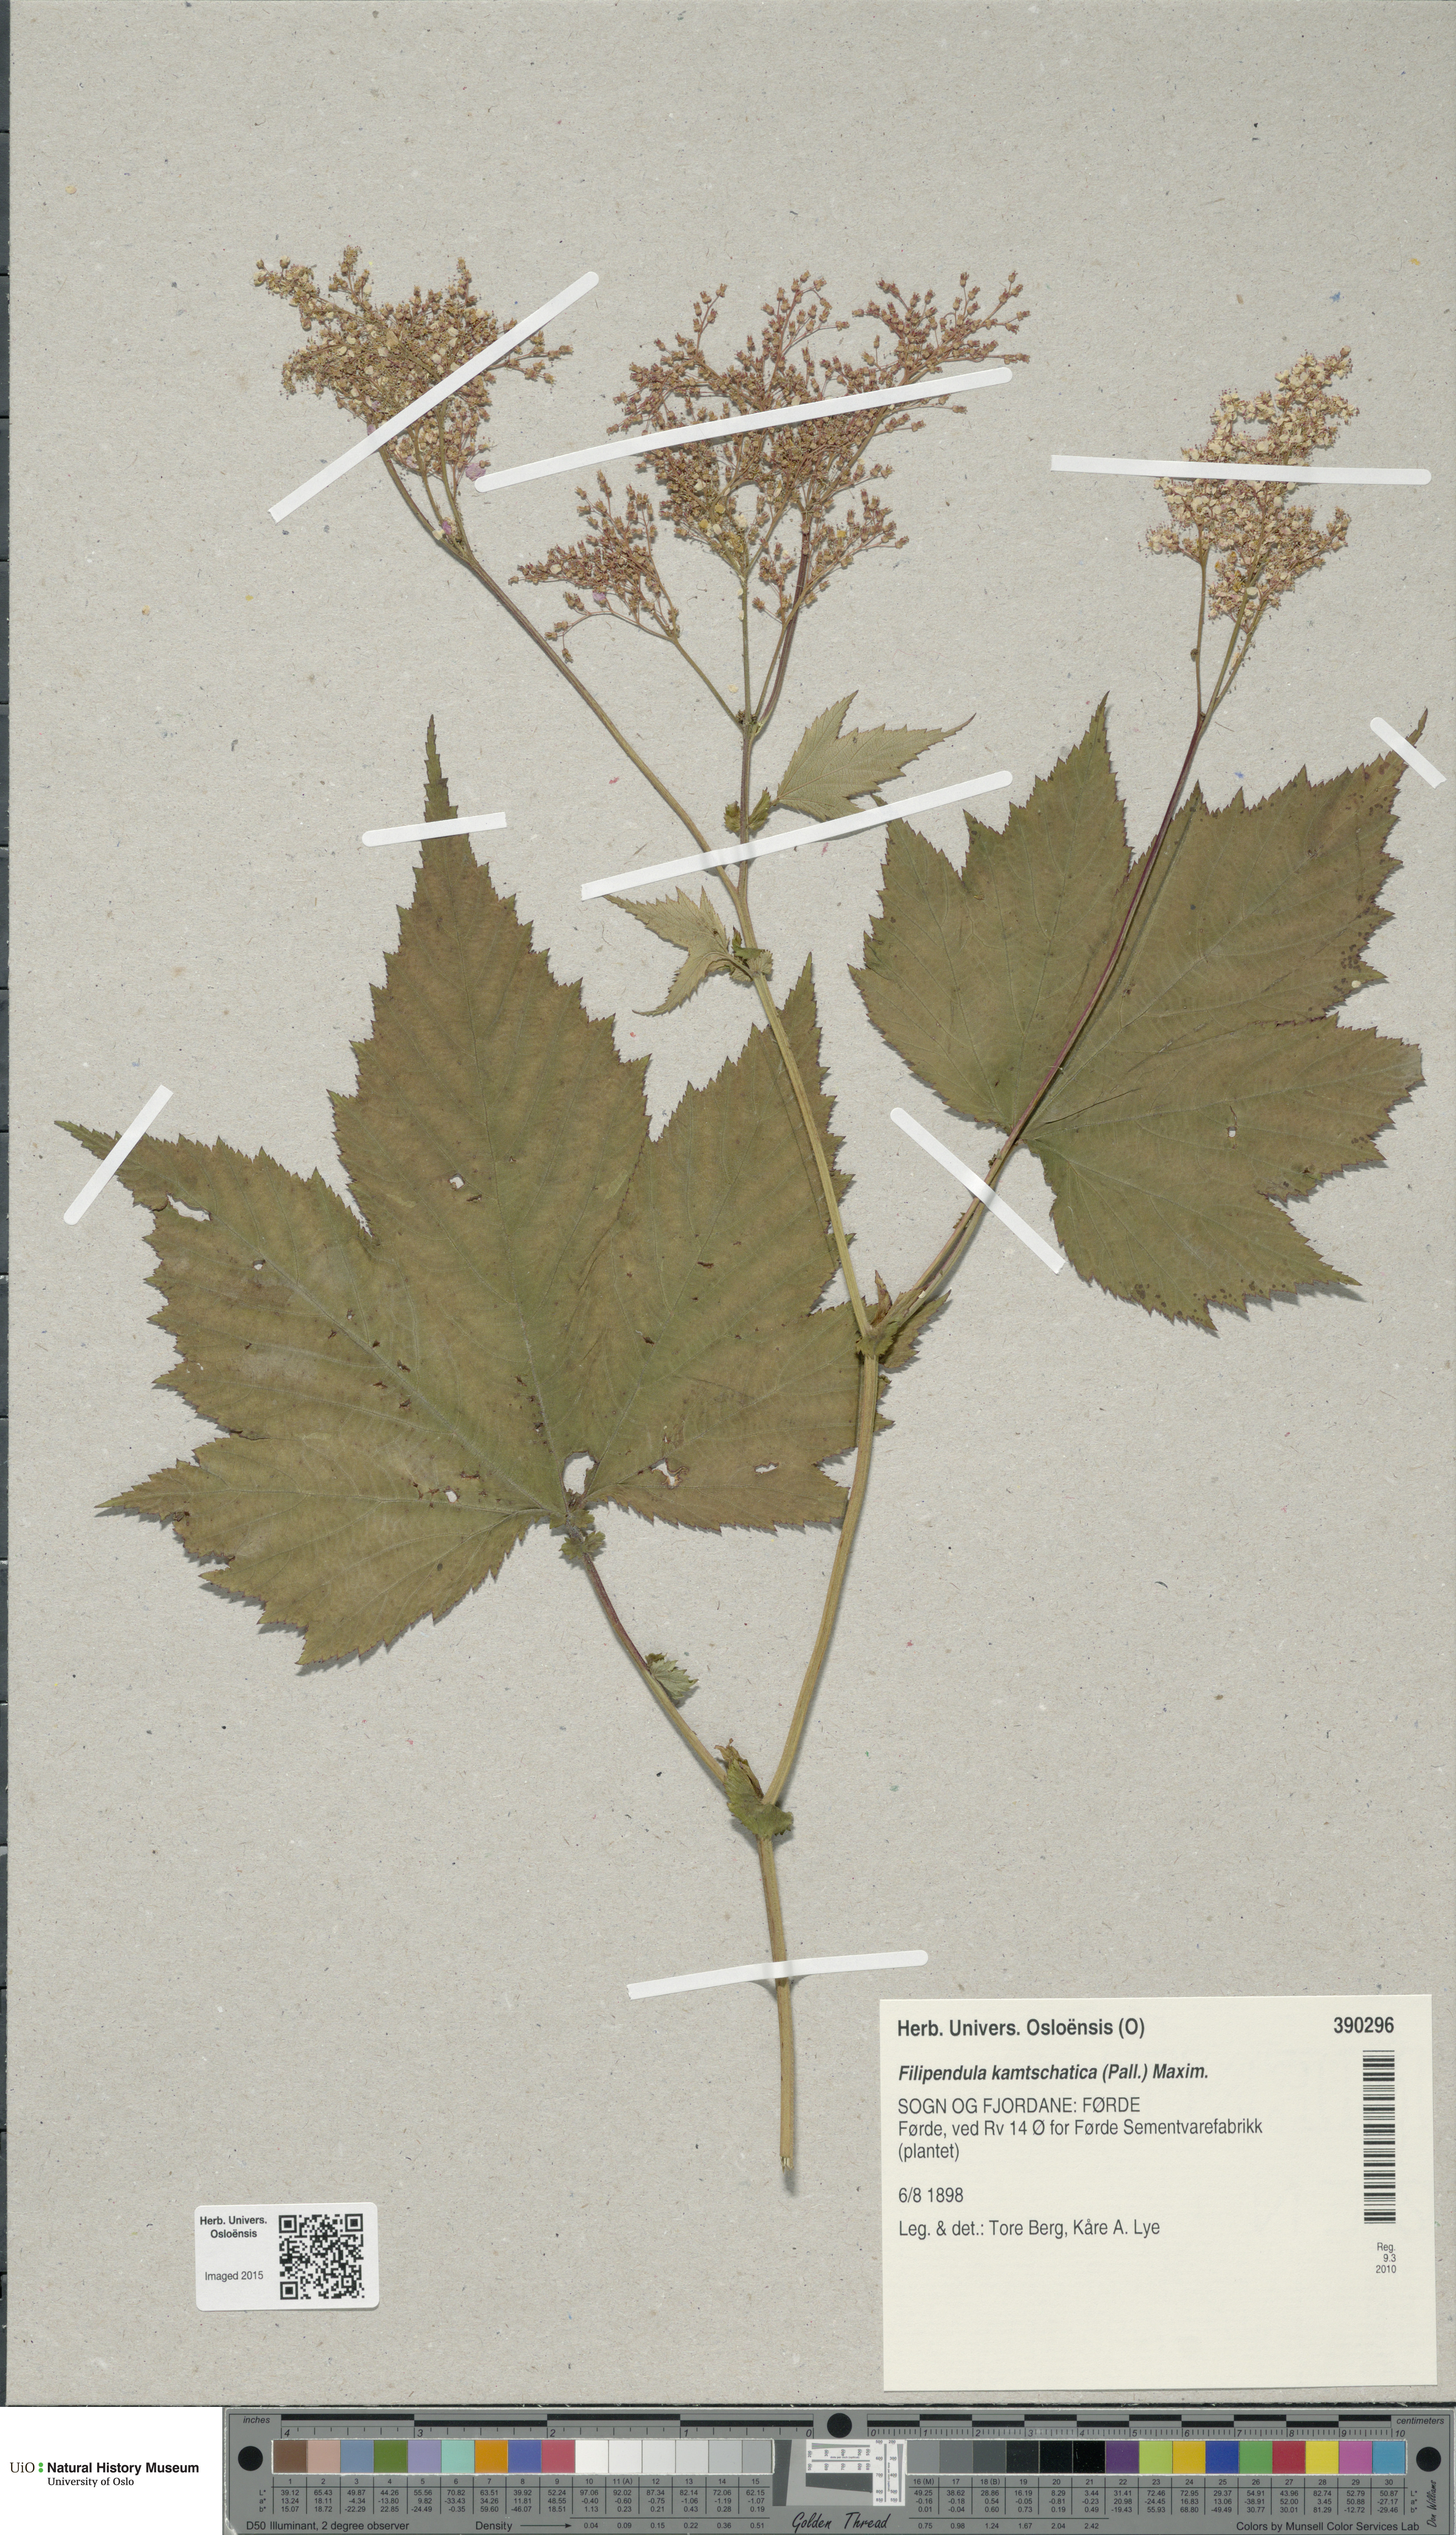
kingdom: Plantae
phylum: Tracheophyta
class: Magnoliopsida
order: Rosales
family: Rosaceae
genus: Filipendula
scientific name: Filipendula camschatica
